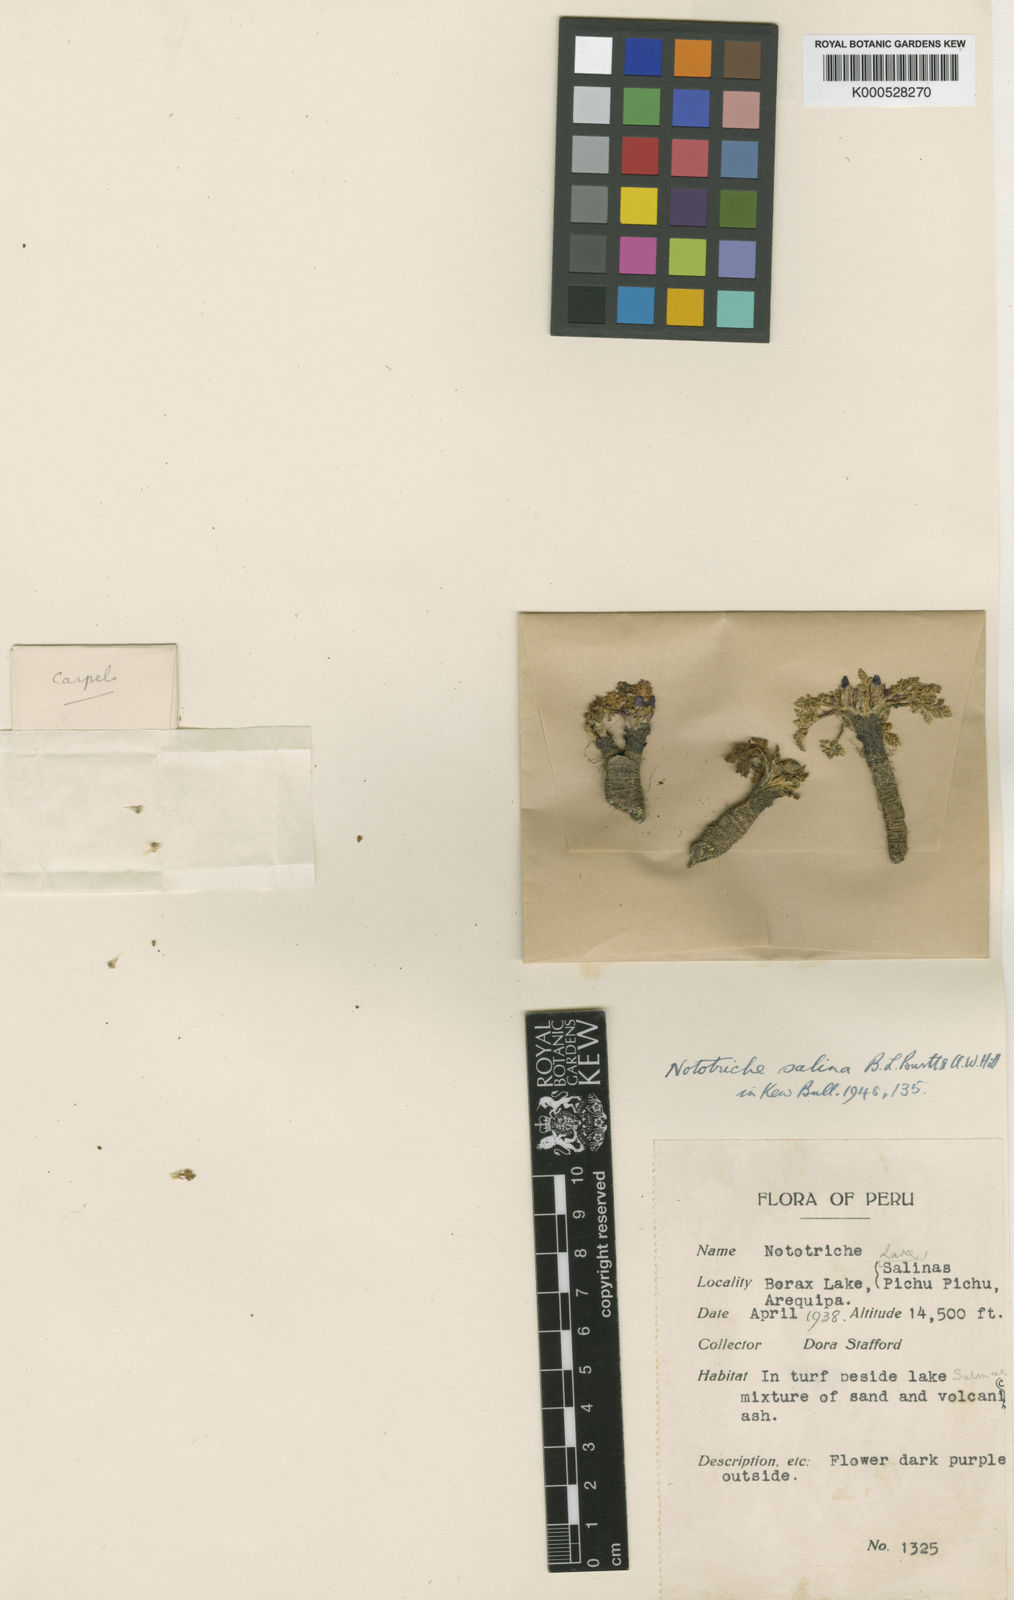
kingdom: Plantae
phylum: Tracheophyta
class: Magnoliopsida
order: Malvales
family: Malvaceae
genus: Nototriche
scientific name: Nototriche salina
